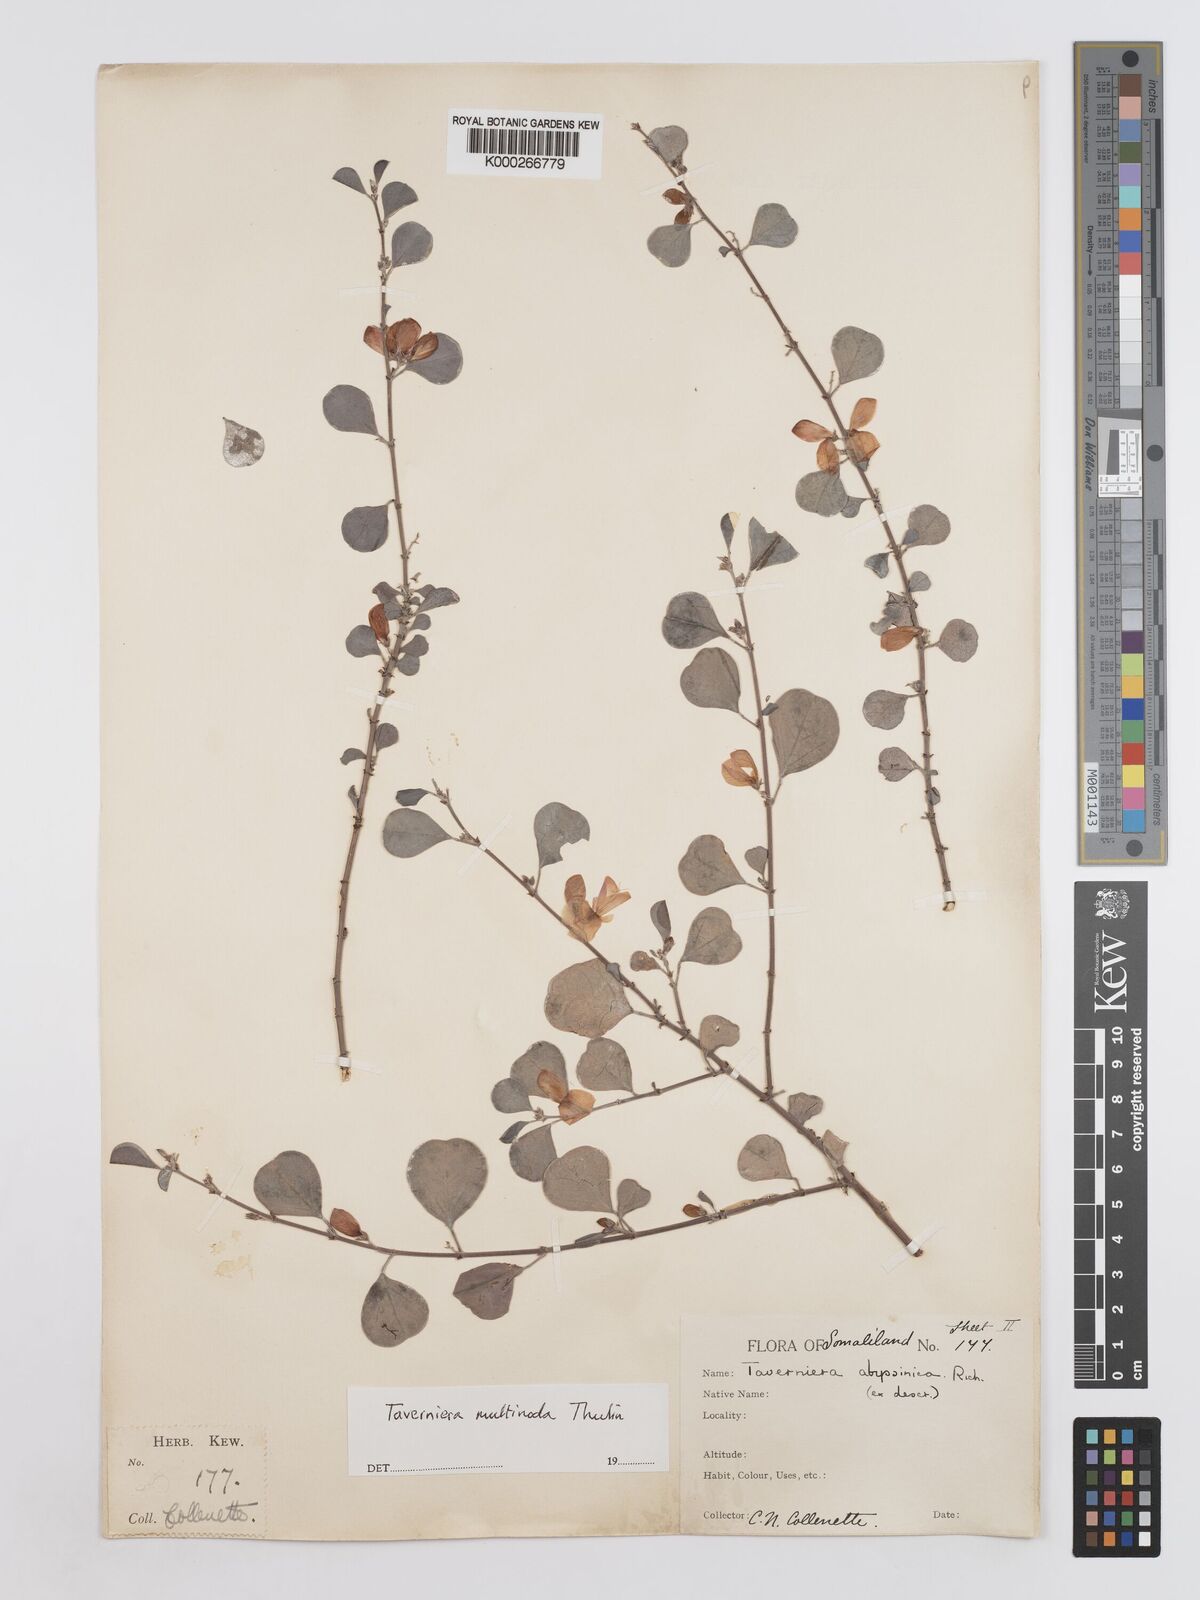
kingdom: Plantae
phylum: Tracheophyta
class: Magnoliopsida
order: Fabales
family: Fabaceae
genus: Taverniera
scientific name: Taverniera multinoda
